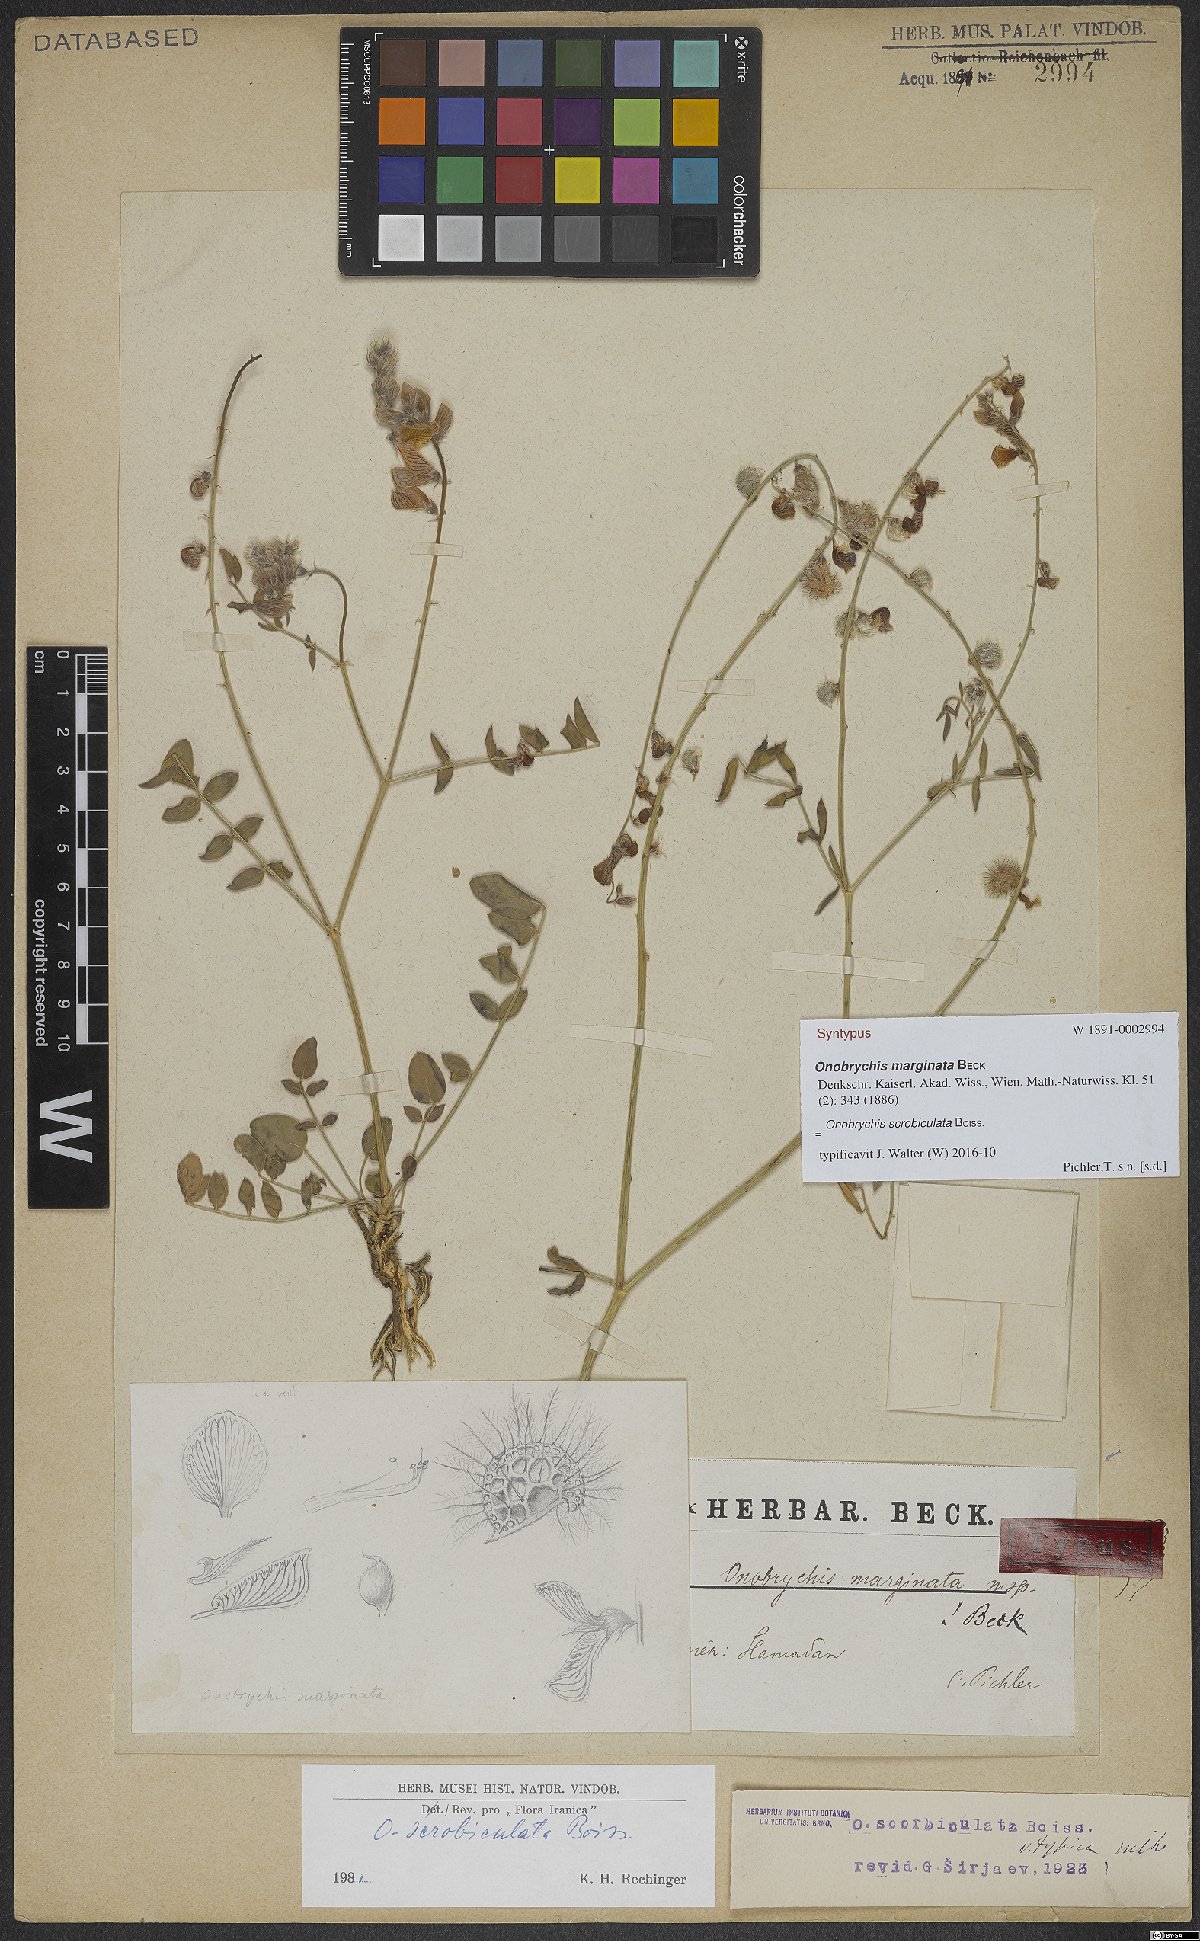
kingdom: Plantae
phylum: Tracheophyta
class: Magnoliopsida
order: Fabales
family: Fabaceae
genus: Onobrychis
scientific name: Onobrychis scrobiculata
